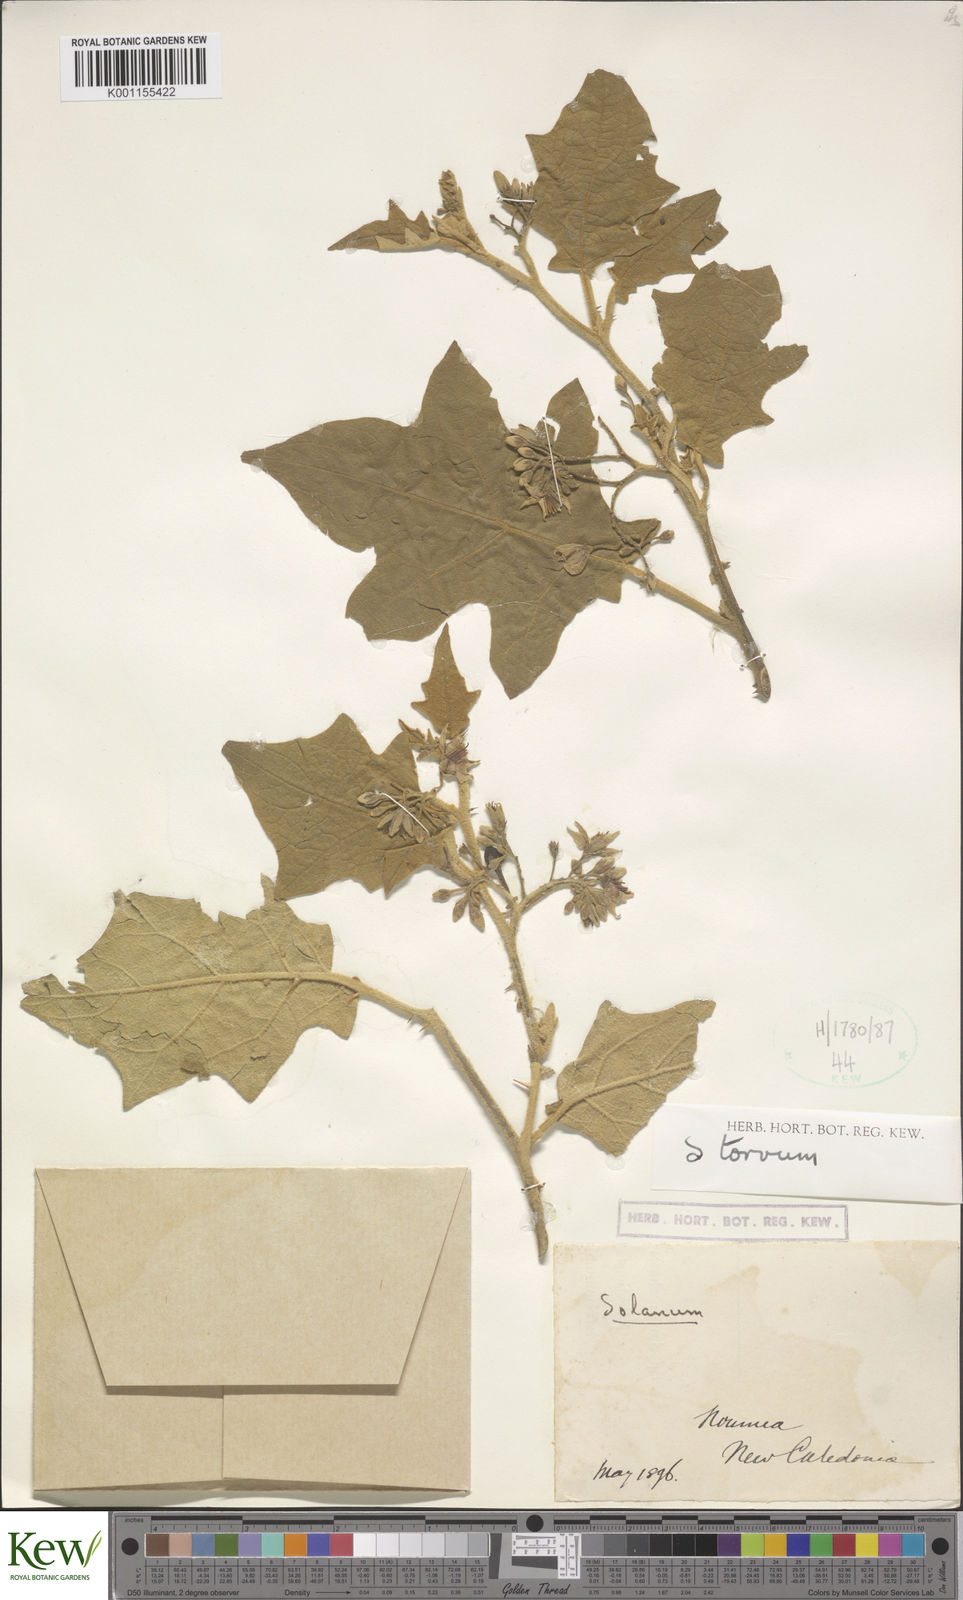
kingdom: Plantae
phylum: Tracheophyta
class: Magnoliopsida
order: Solanales
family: Solanaceae
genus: Solanum
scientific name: Solanum torvum
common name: Turkey berry
